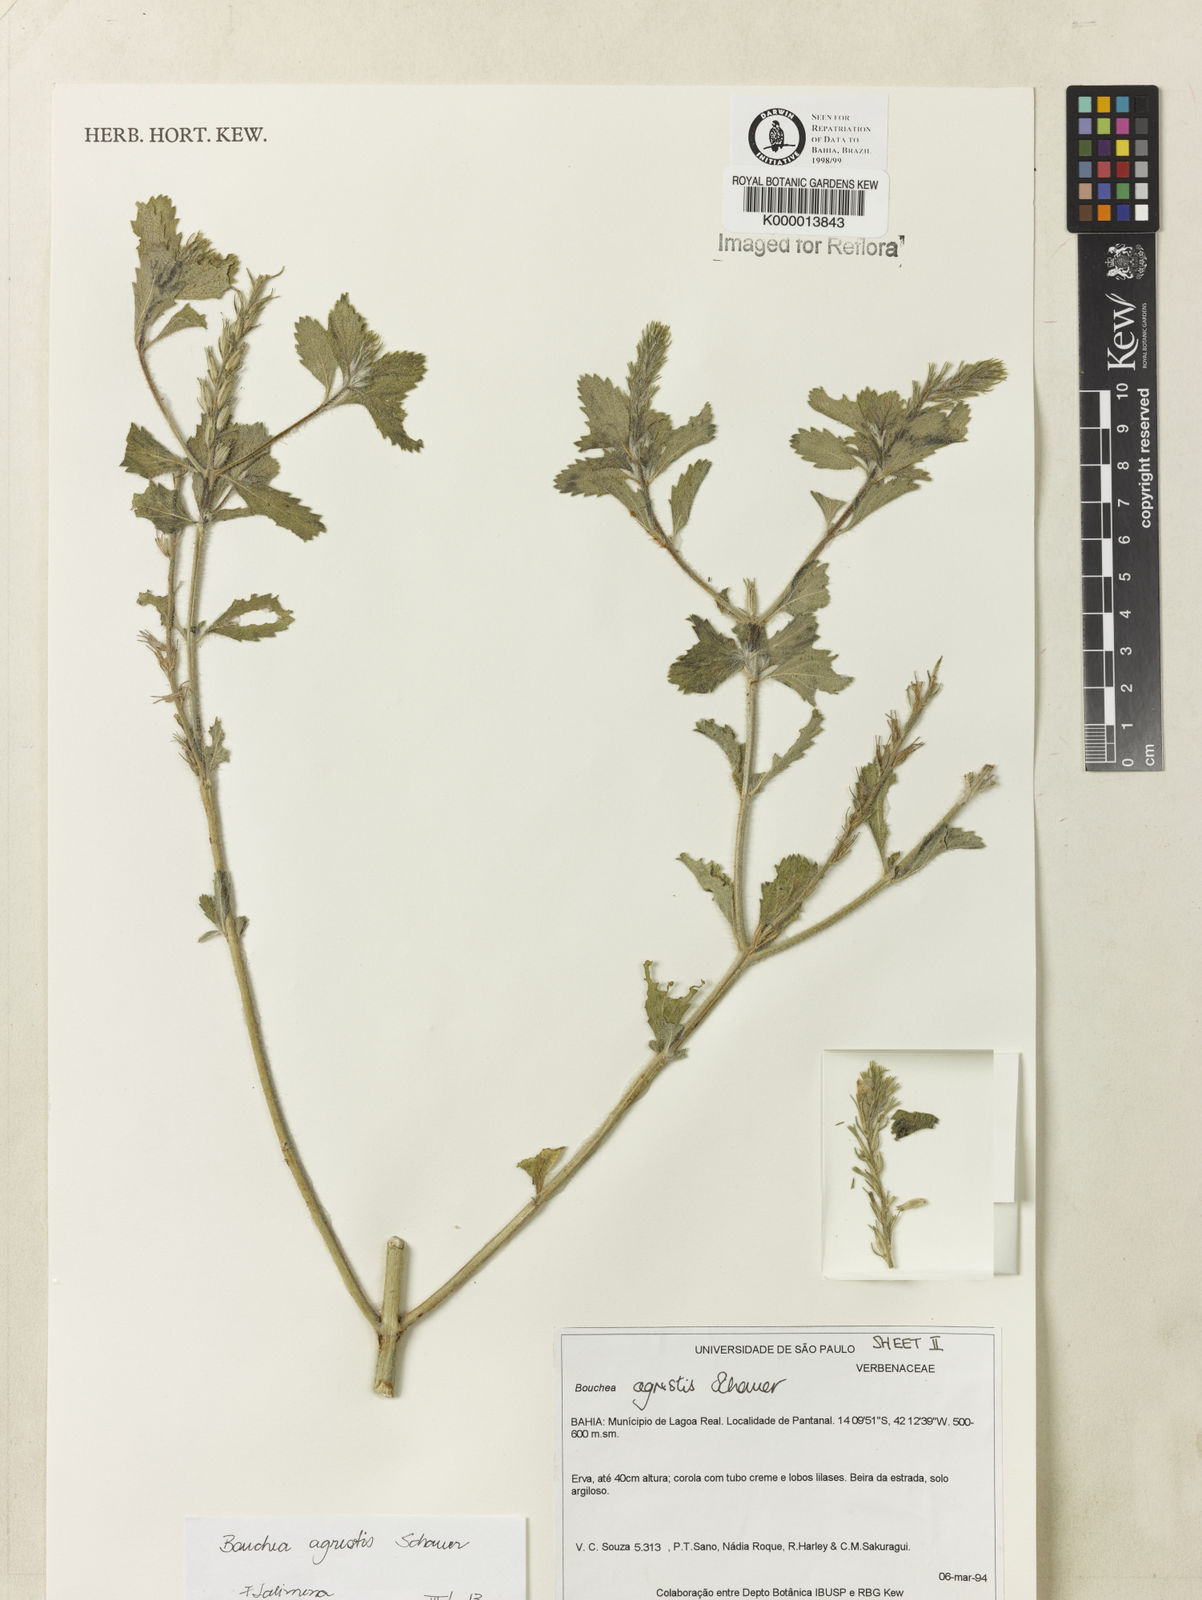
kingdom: Plantae
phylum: Tracheophyta
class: Magnoliopsida
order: Lamiales
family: Verbenaceae
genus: Bouchea
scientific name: Bouchea agrestis
